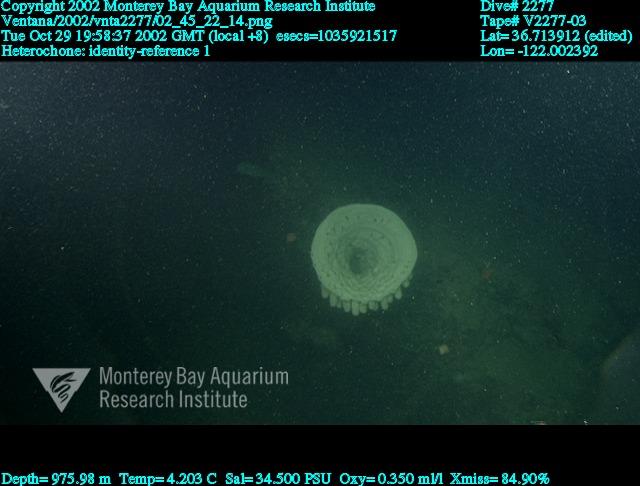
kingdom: Animalia
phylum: Porifera
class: Hexactinellida
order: Sceptrulophora
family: Aphrocallistidae
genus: Heterochone
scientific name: Heterochone
